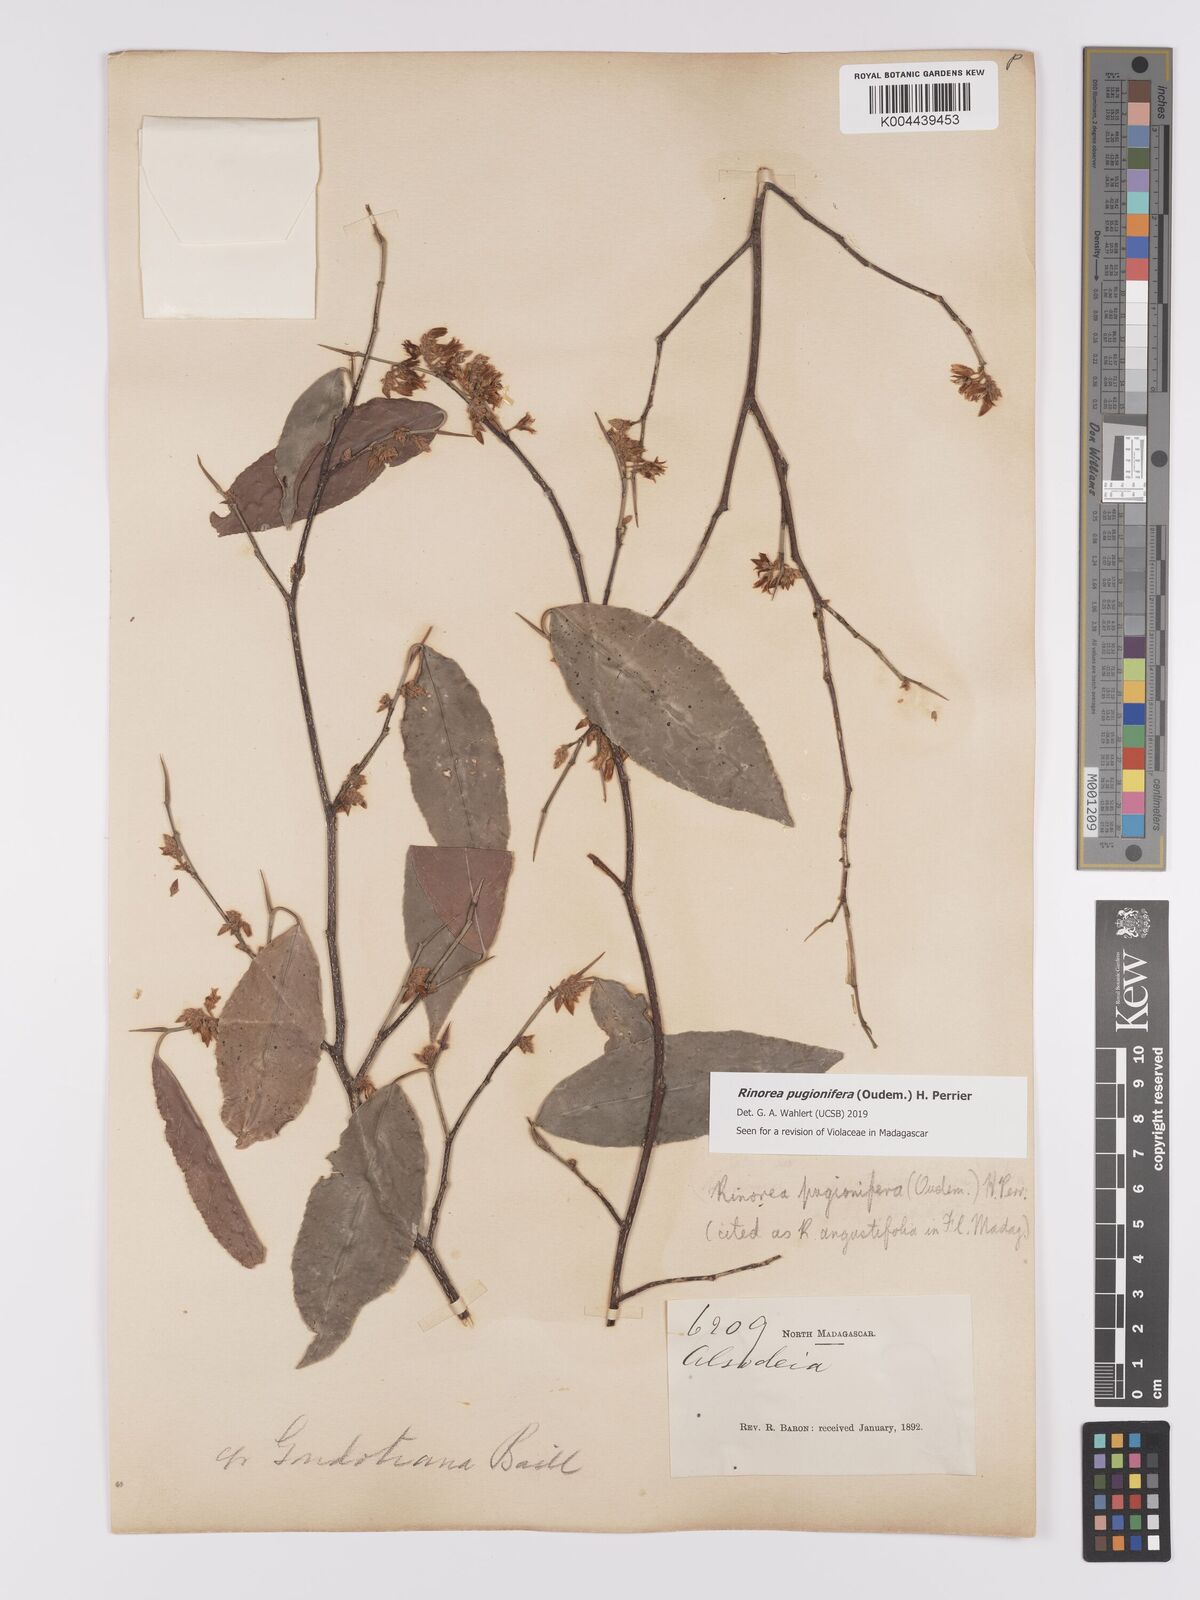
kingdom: Plantae
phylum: Tracheophyta
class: Magnoliopsida
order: Malpighiales
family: Violaceae
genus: Rinorea
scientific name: Rinorea pugionifera
